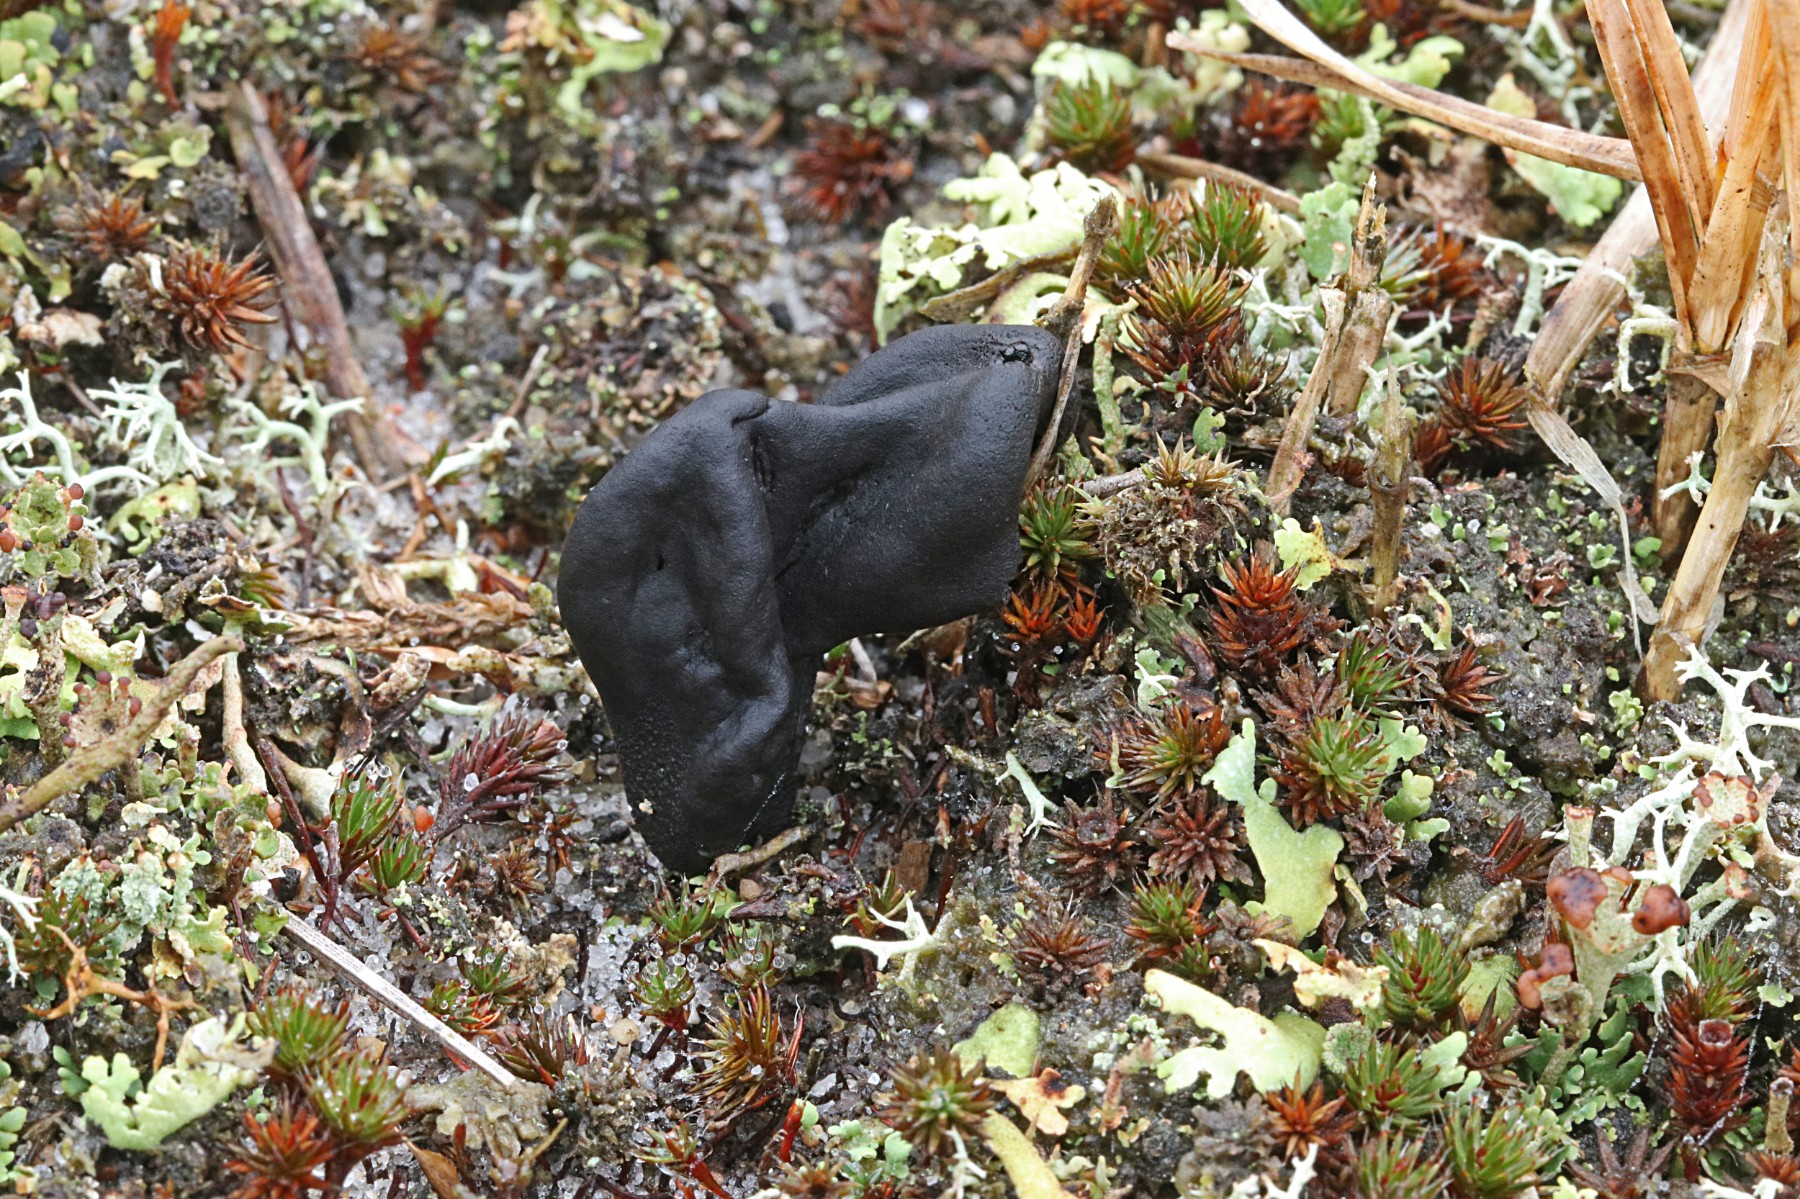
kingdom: Fungi
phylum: Ascomycota
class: Geoglossomycetes
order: Geoglossales
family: Geoglossaceae
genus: Sabuloglossum
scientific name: Sabuloglossum arenarium
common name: klit-jordtunge
